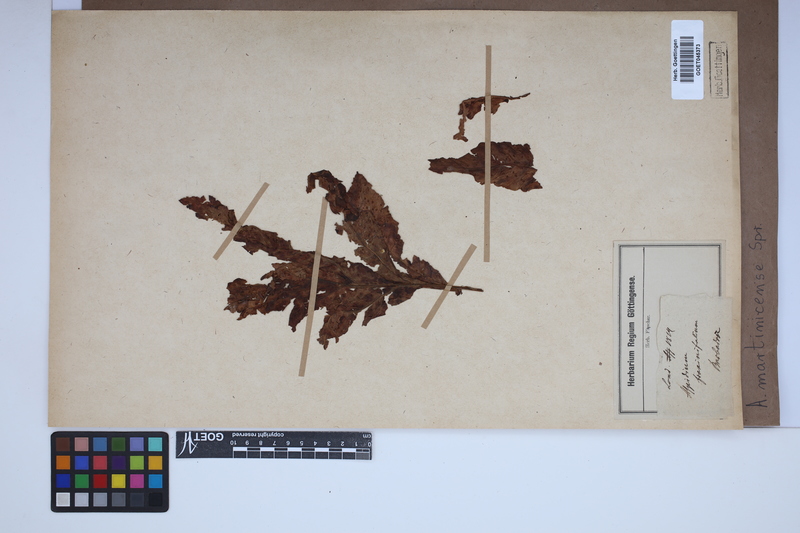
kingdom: Plantae
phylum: Tracheophyta
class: Polypodiopsida
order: Polypodiales
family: Tectariaceae
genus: Tectaria
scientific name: Tectaria incisa
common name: Incised halberd fern
